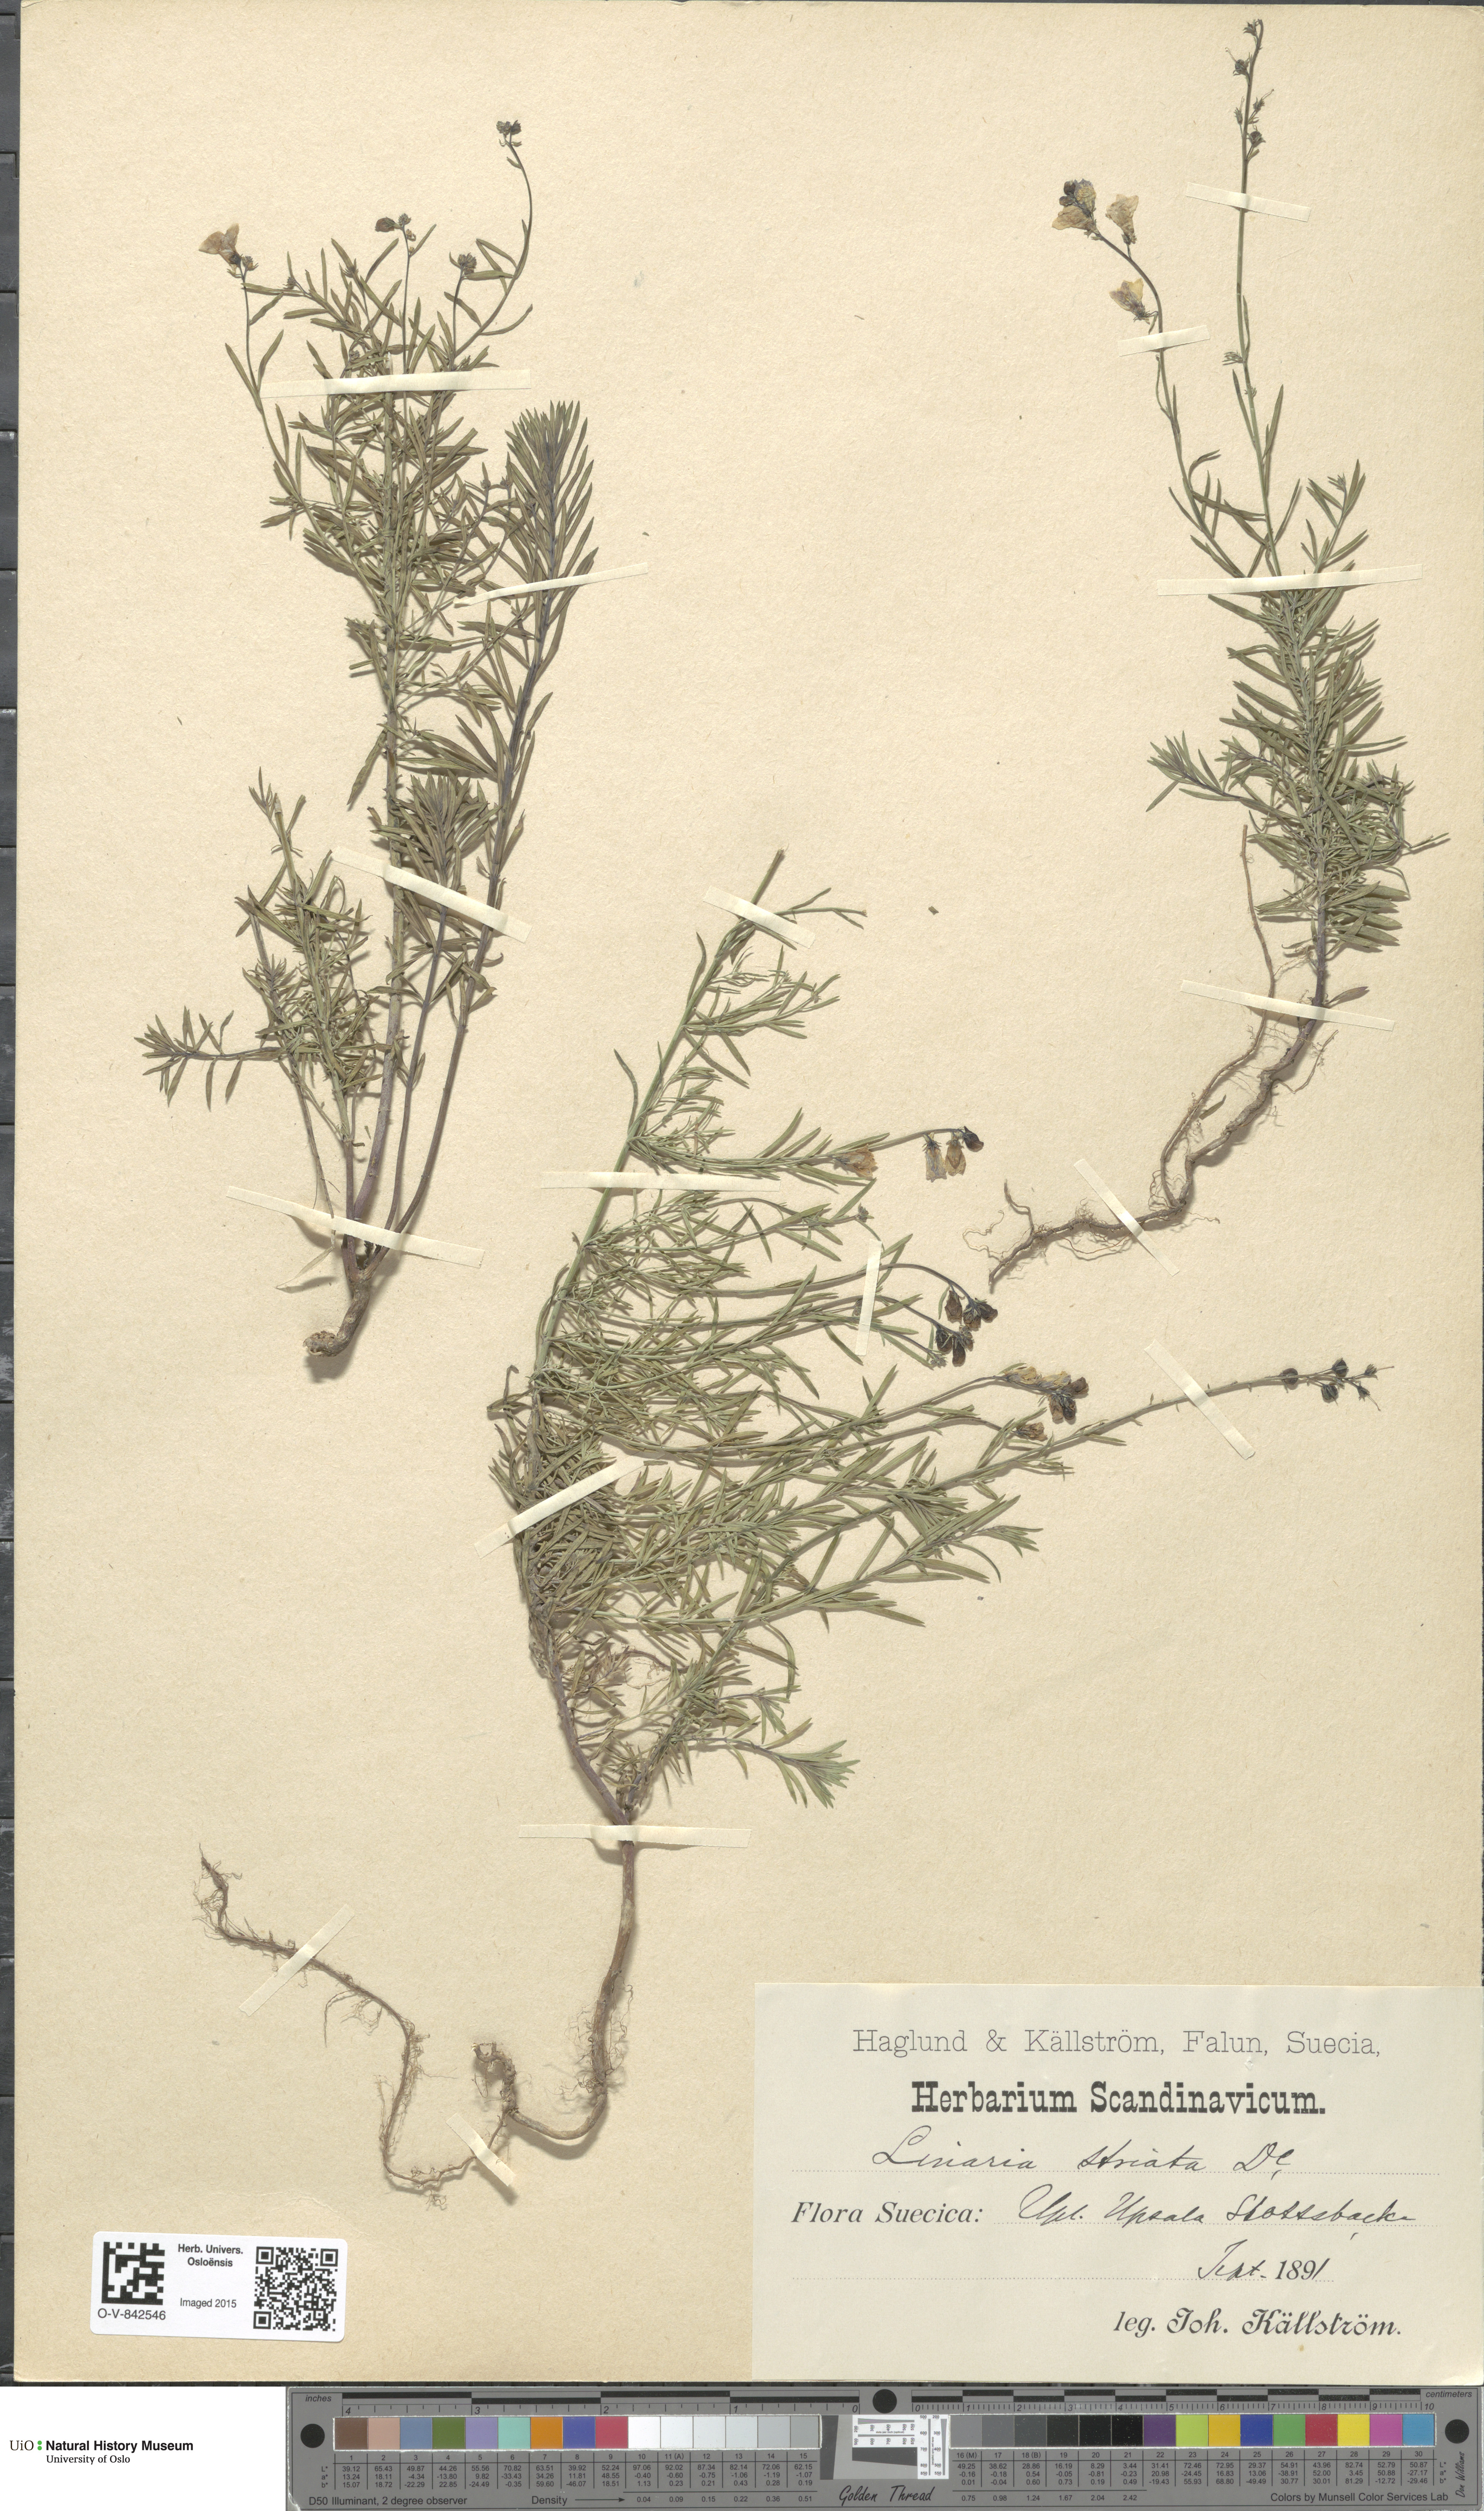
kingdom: Plantae
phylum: Tracheophyta
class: Magnoliopsida
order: Lamiales
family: Plantaginaceae
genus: Linaria
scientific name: Linaria repens
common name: Pale toadflax
